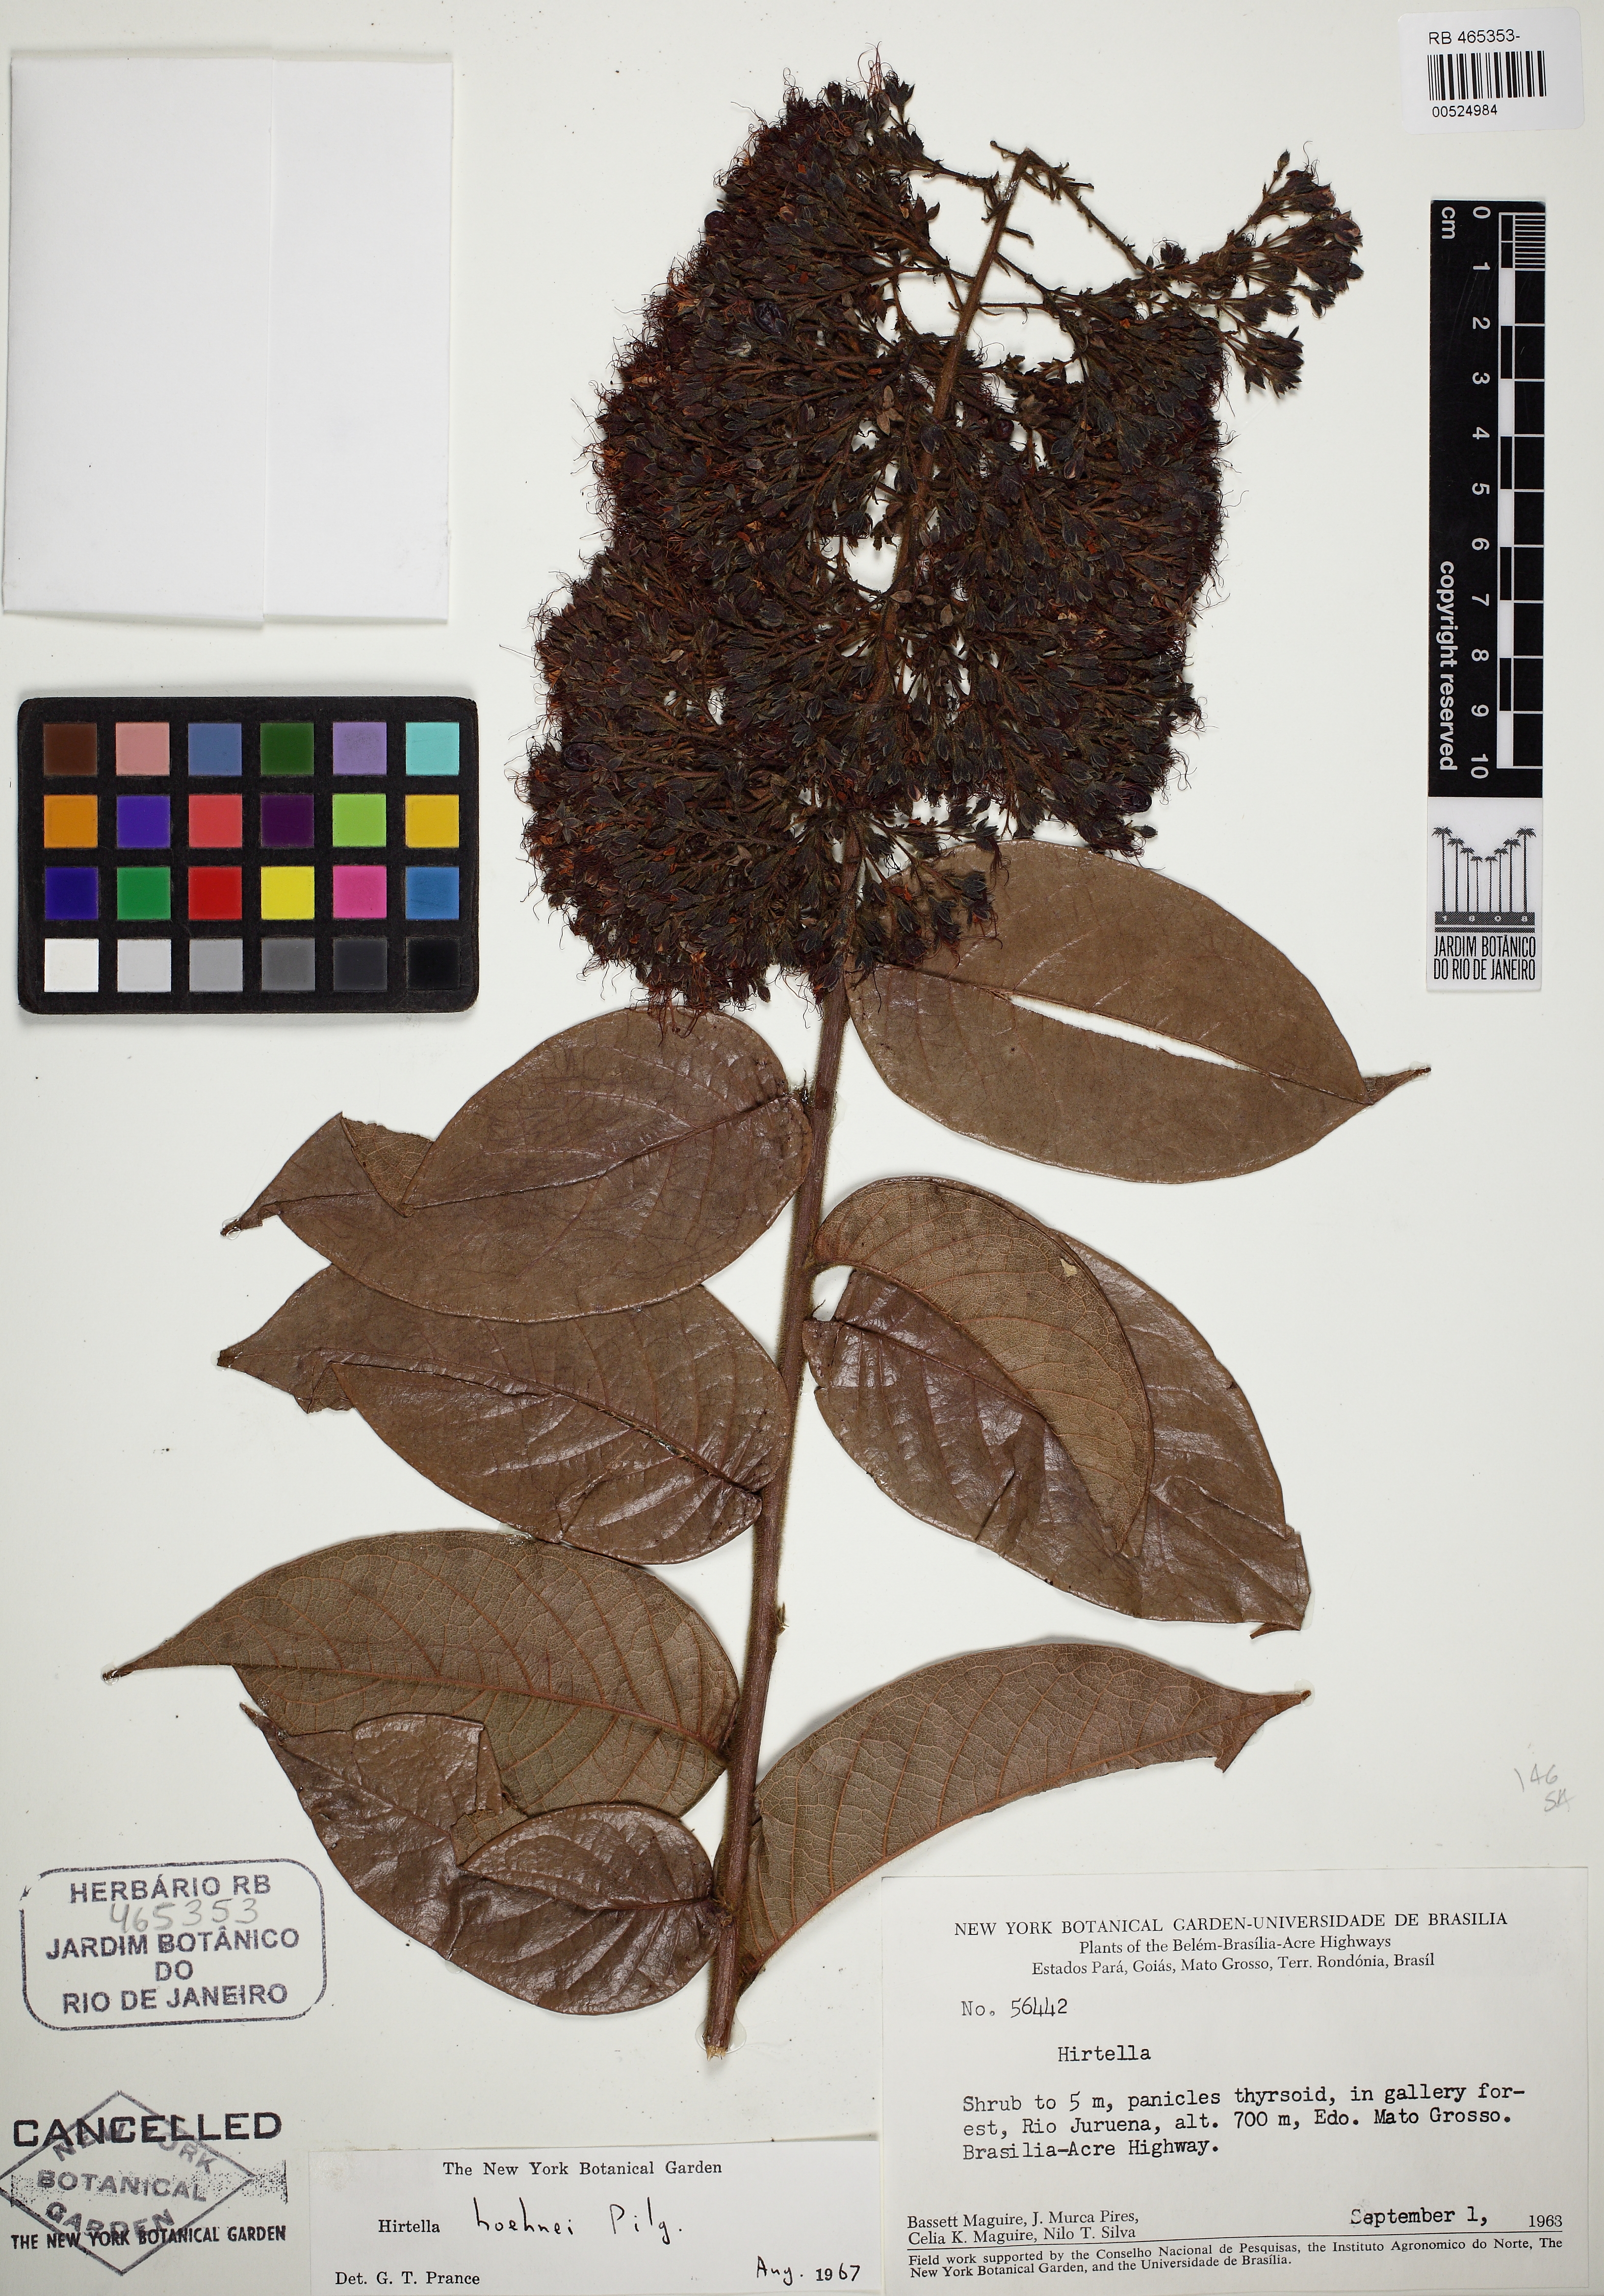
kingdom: Plantae
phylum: Tracheophyta
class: Magnoliopsida
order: Malpighiales
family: Chrysobalanaceae
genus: Hirtella
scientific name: Hirtella hoehnei
